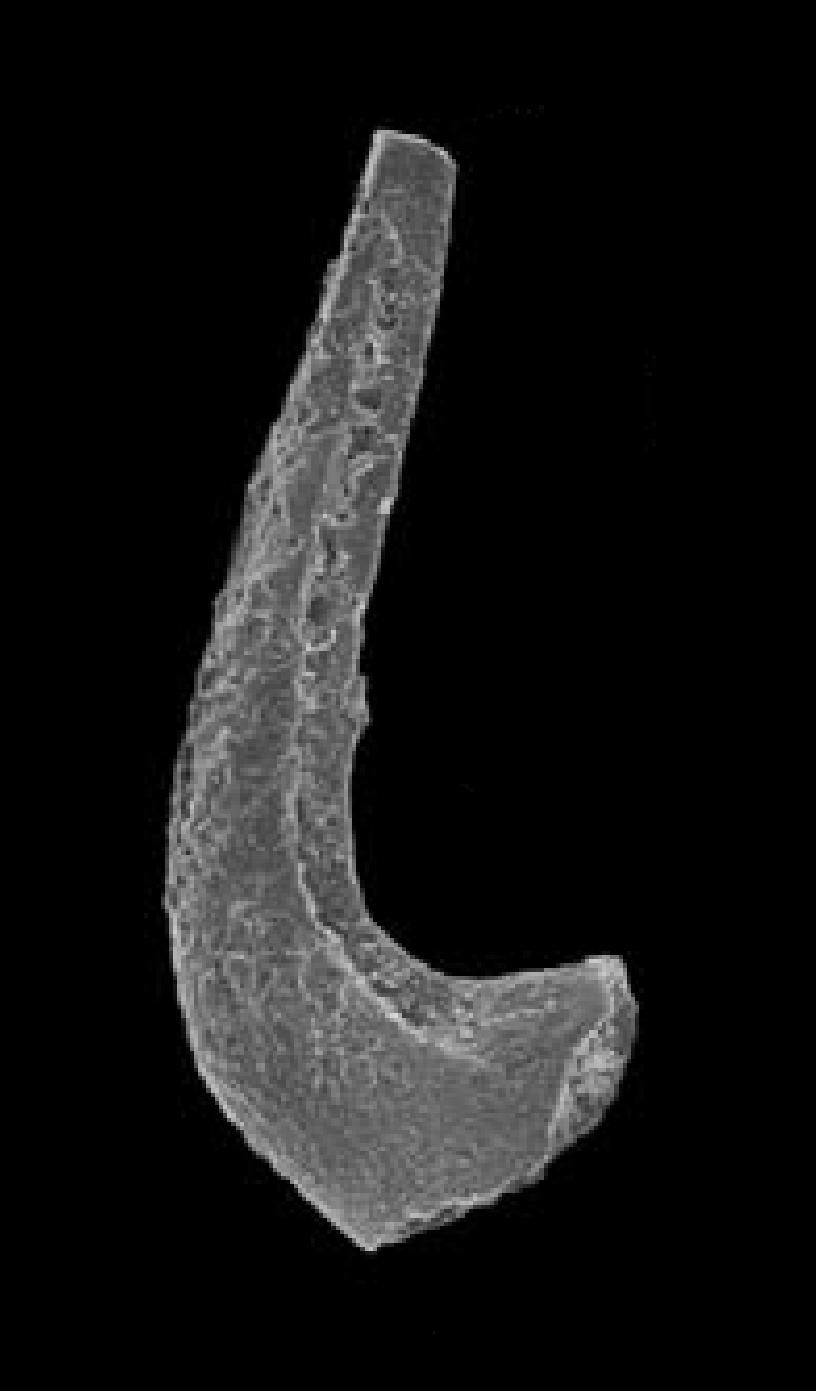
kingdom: Animalia
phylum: Chordata
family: Protopanderodontidae
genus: Protopanderodus
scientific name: Protopanderodus Acontiodus rectus
